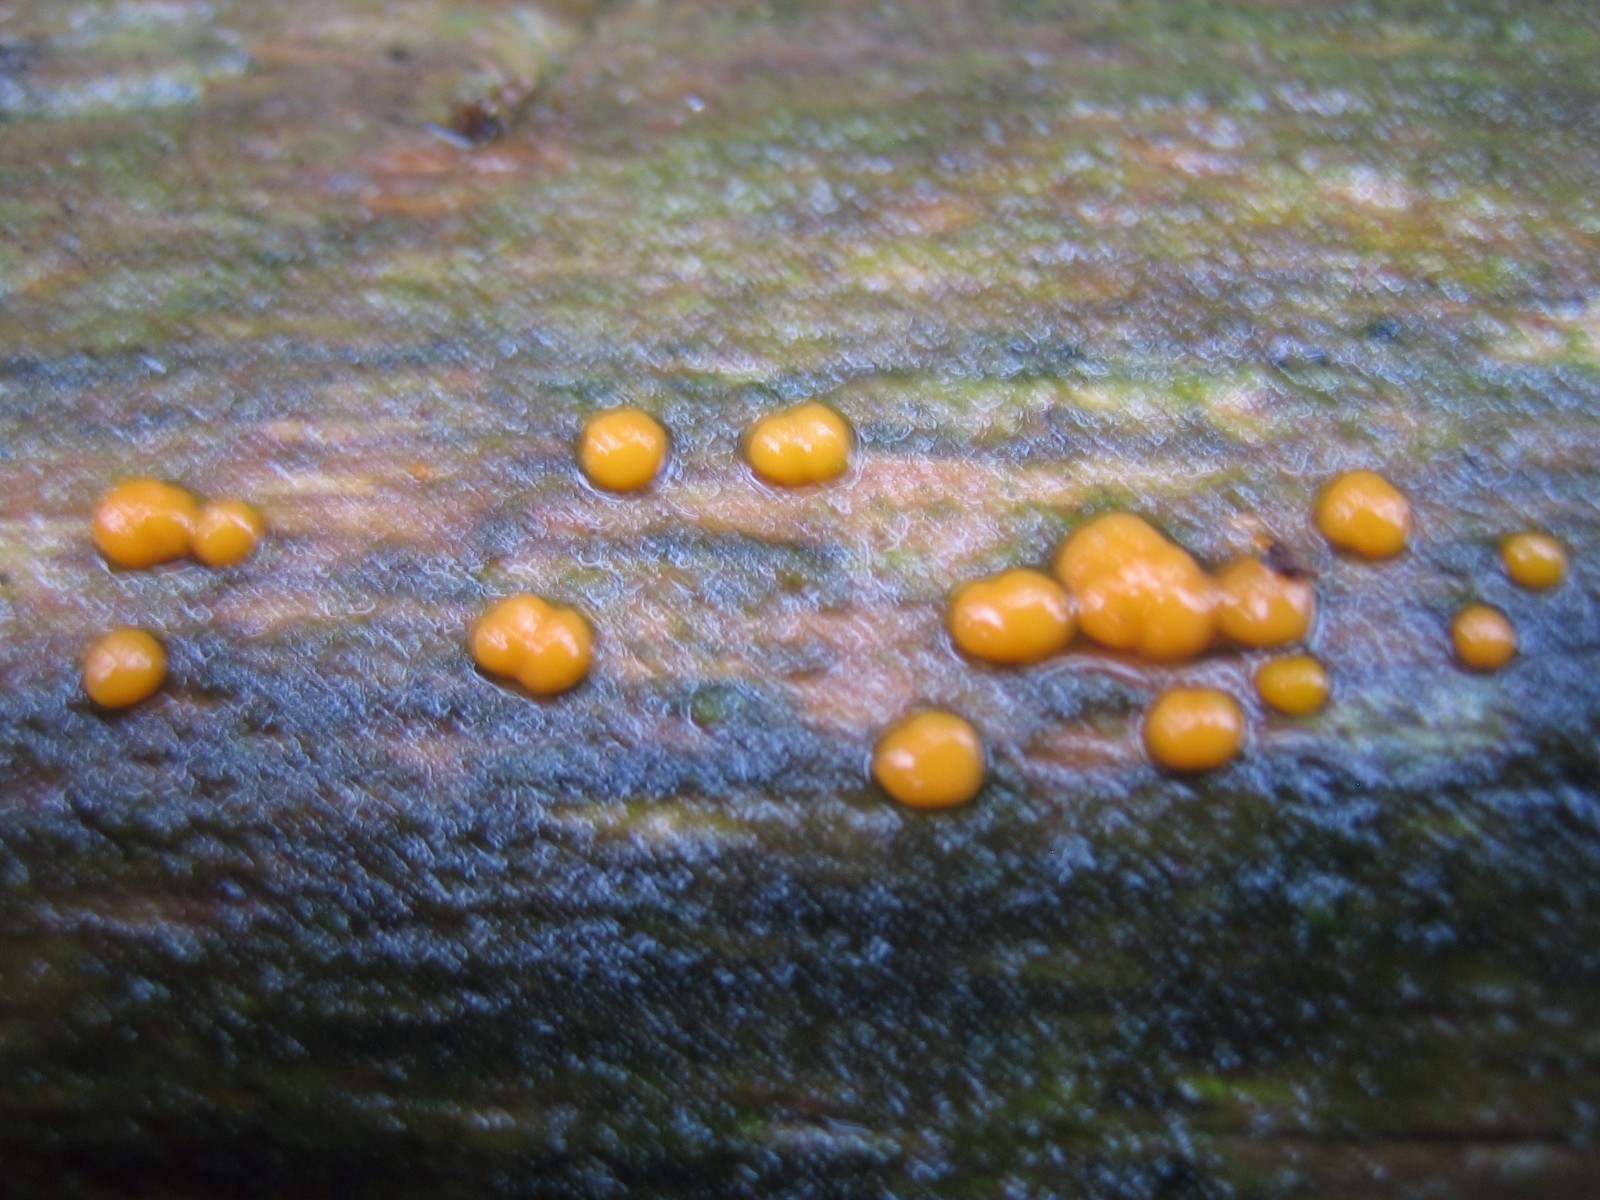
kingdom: Fungi
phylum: Basidiomycota
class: Dacrymycetes
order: Dacrymycetales
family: Dacrymycetaceae
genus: Dacrymyces
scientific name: Dacrymyces stillatus
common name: almindelig tåresvamp
